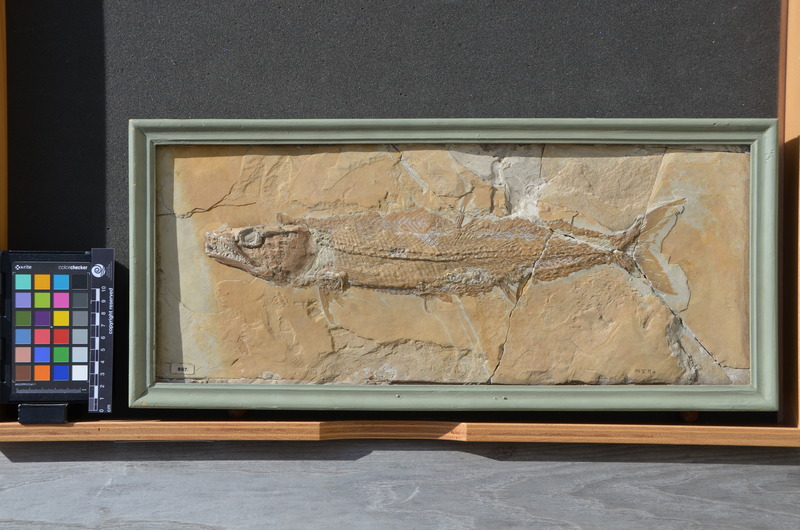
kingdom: Animalia
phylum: Chordata
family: Ophiopsiellidae
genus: Furo
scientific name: Furo microlepidotes
